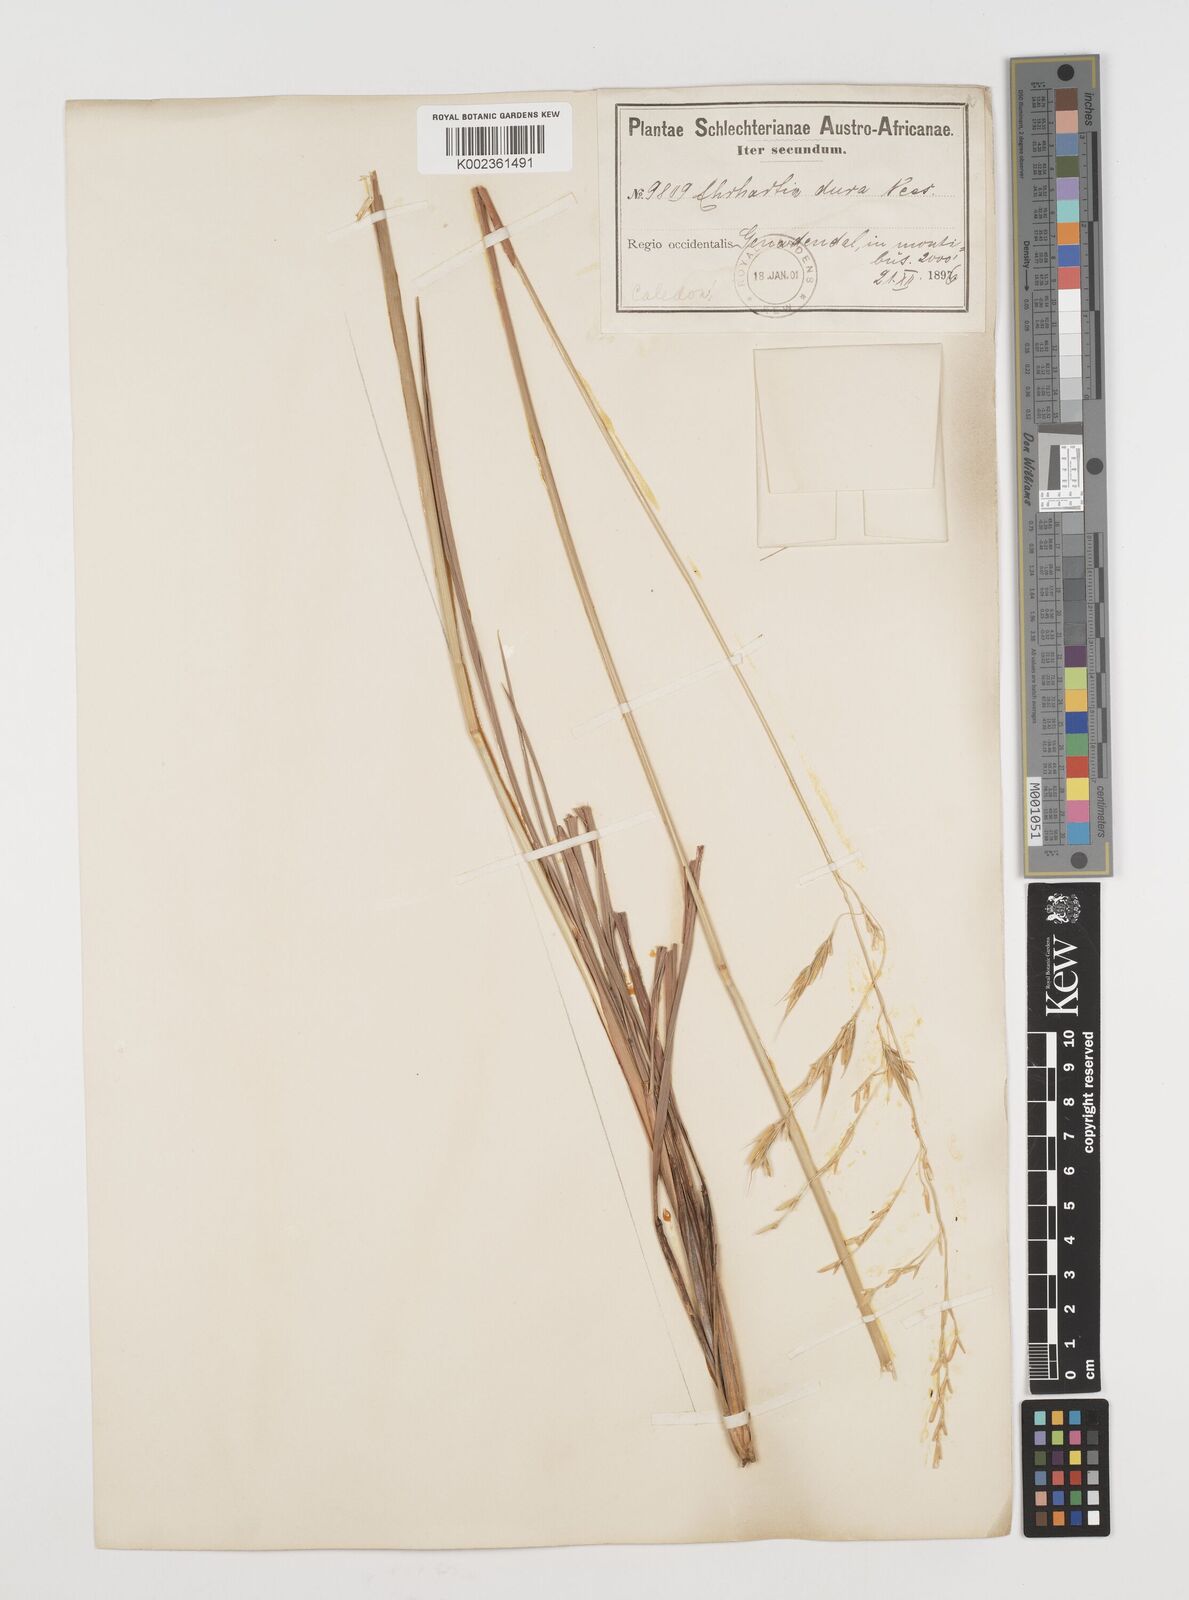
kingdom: Plantae
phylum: Tracheophyta
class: Liliopsida
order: Poales
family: Poaceae
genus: Ehrharta
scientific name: Ehrharta dura
